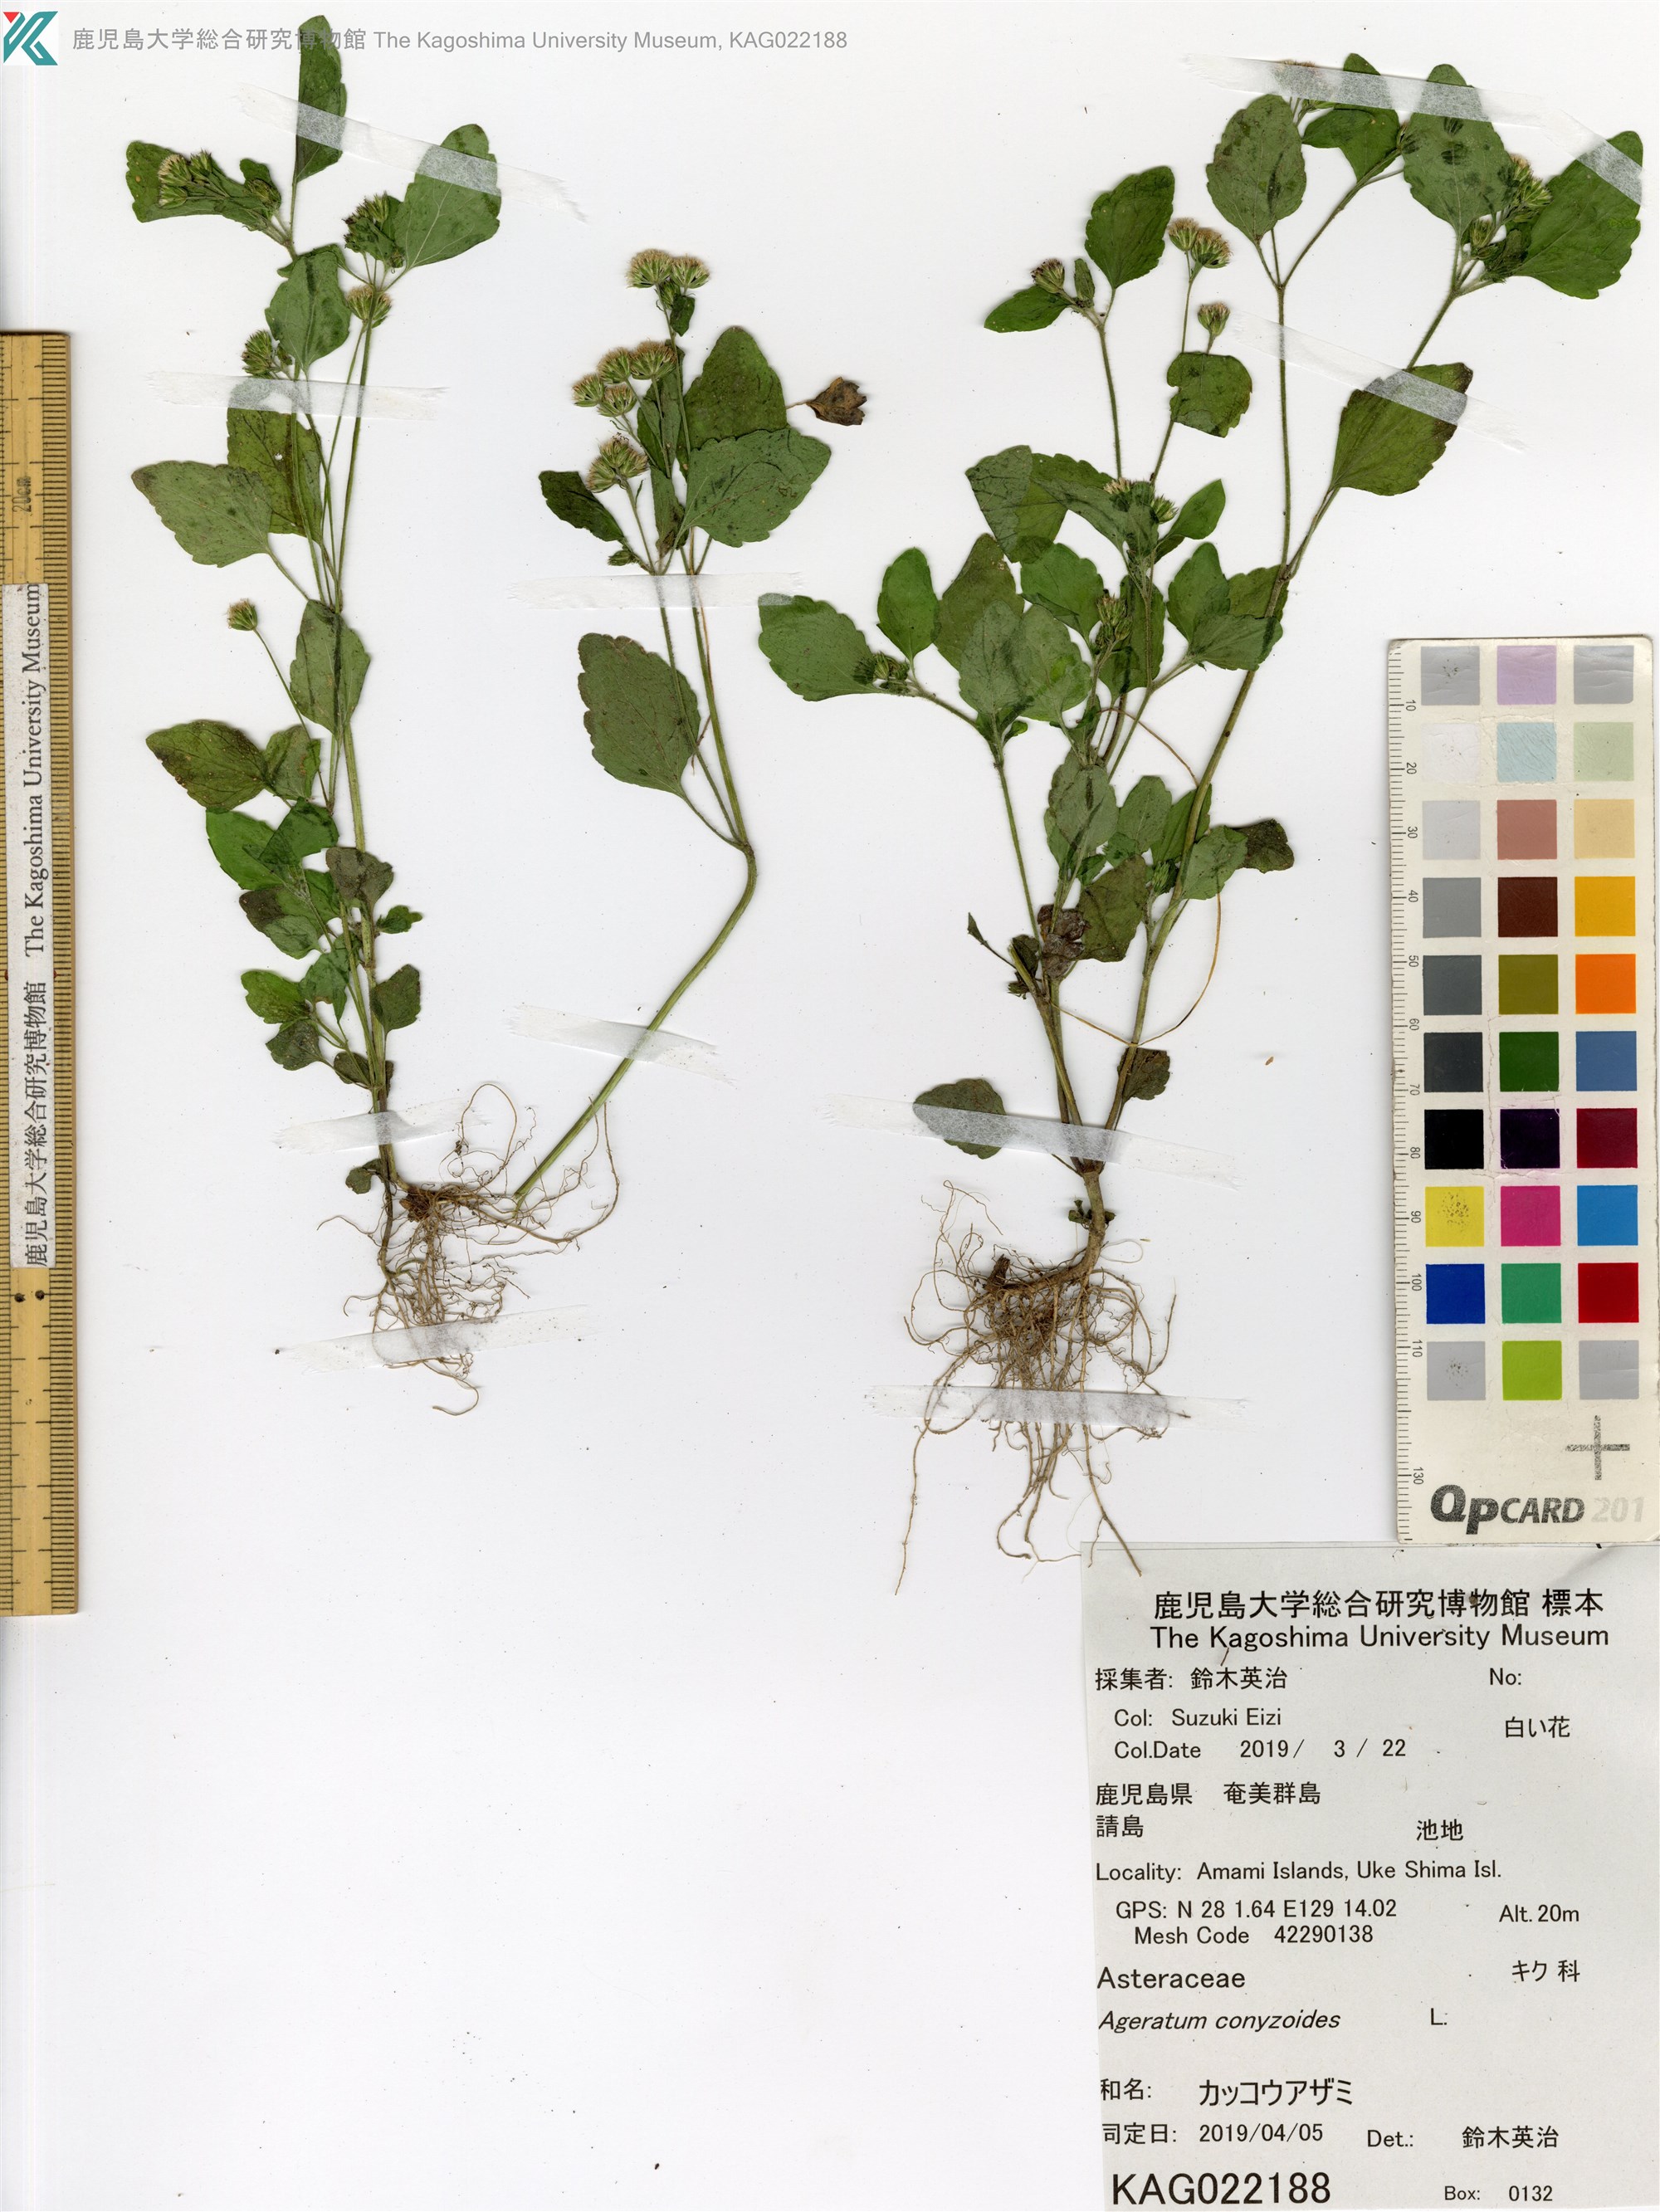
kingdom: Plantae
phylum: Tracheophyta
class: Magnoliopsida
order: Asterales
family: Asteraceae
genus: Ageratum
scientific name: Ageratum conyzoides
